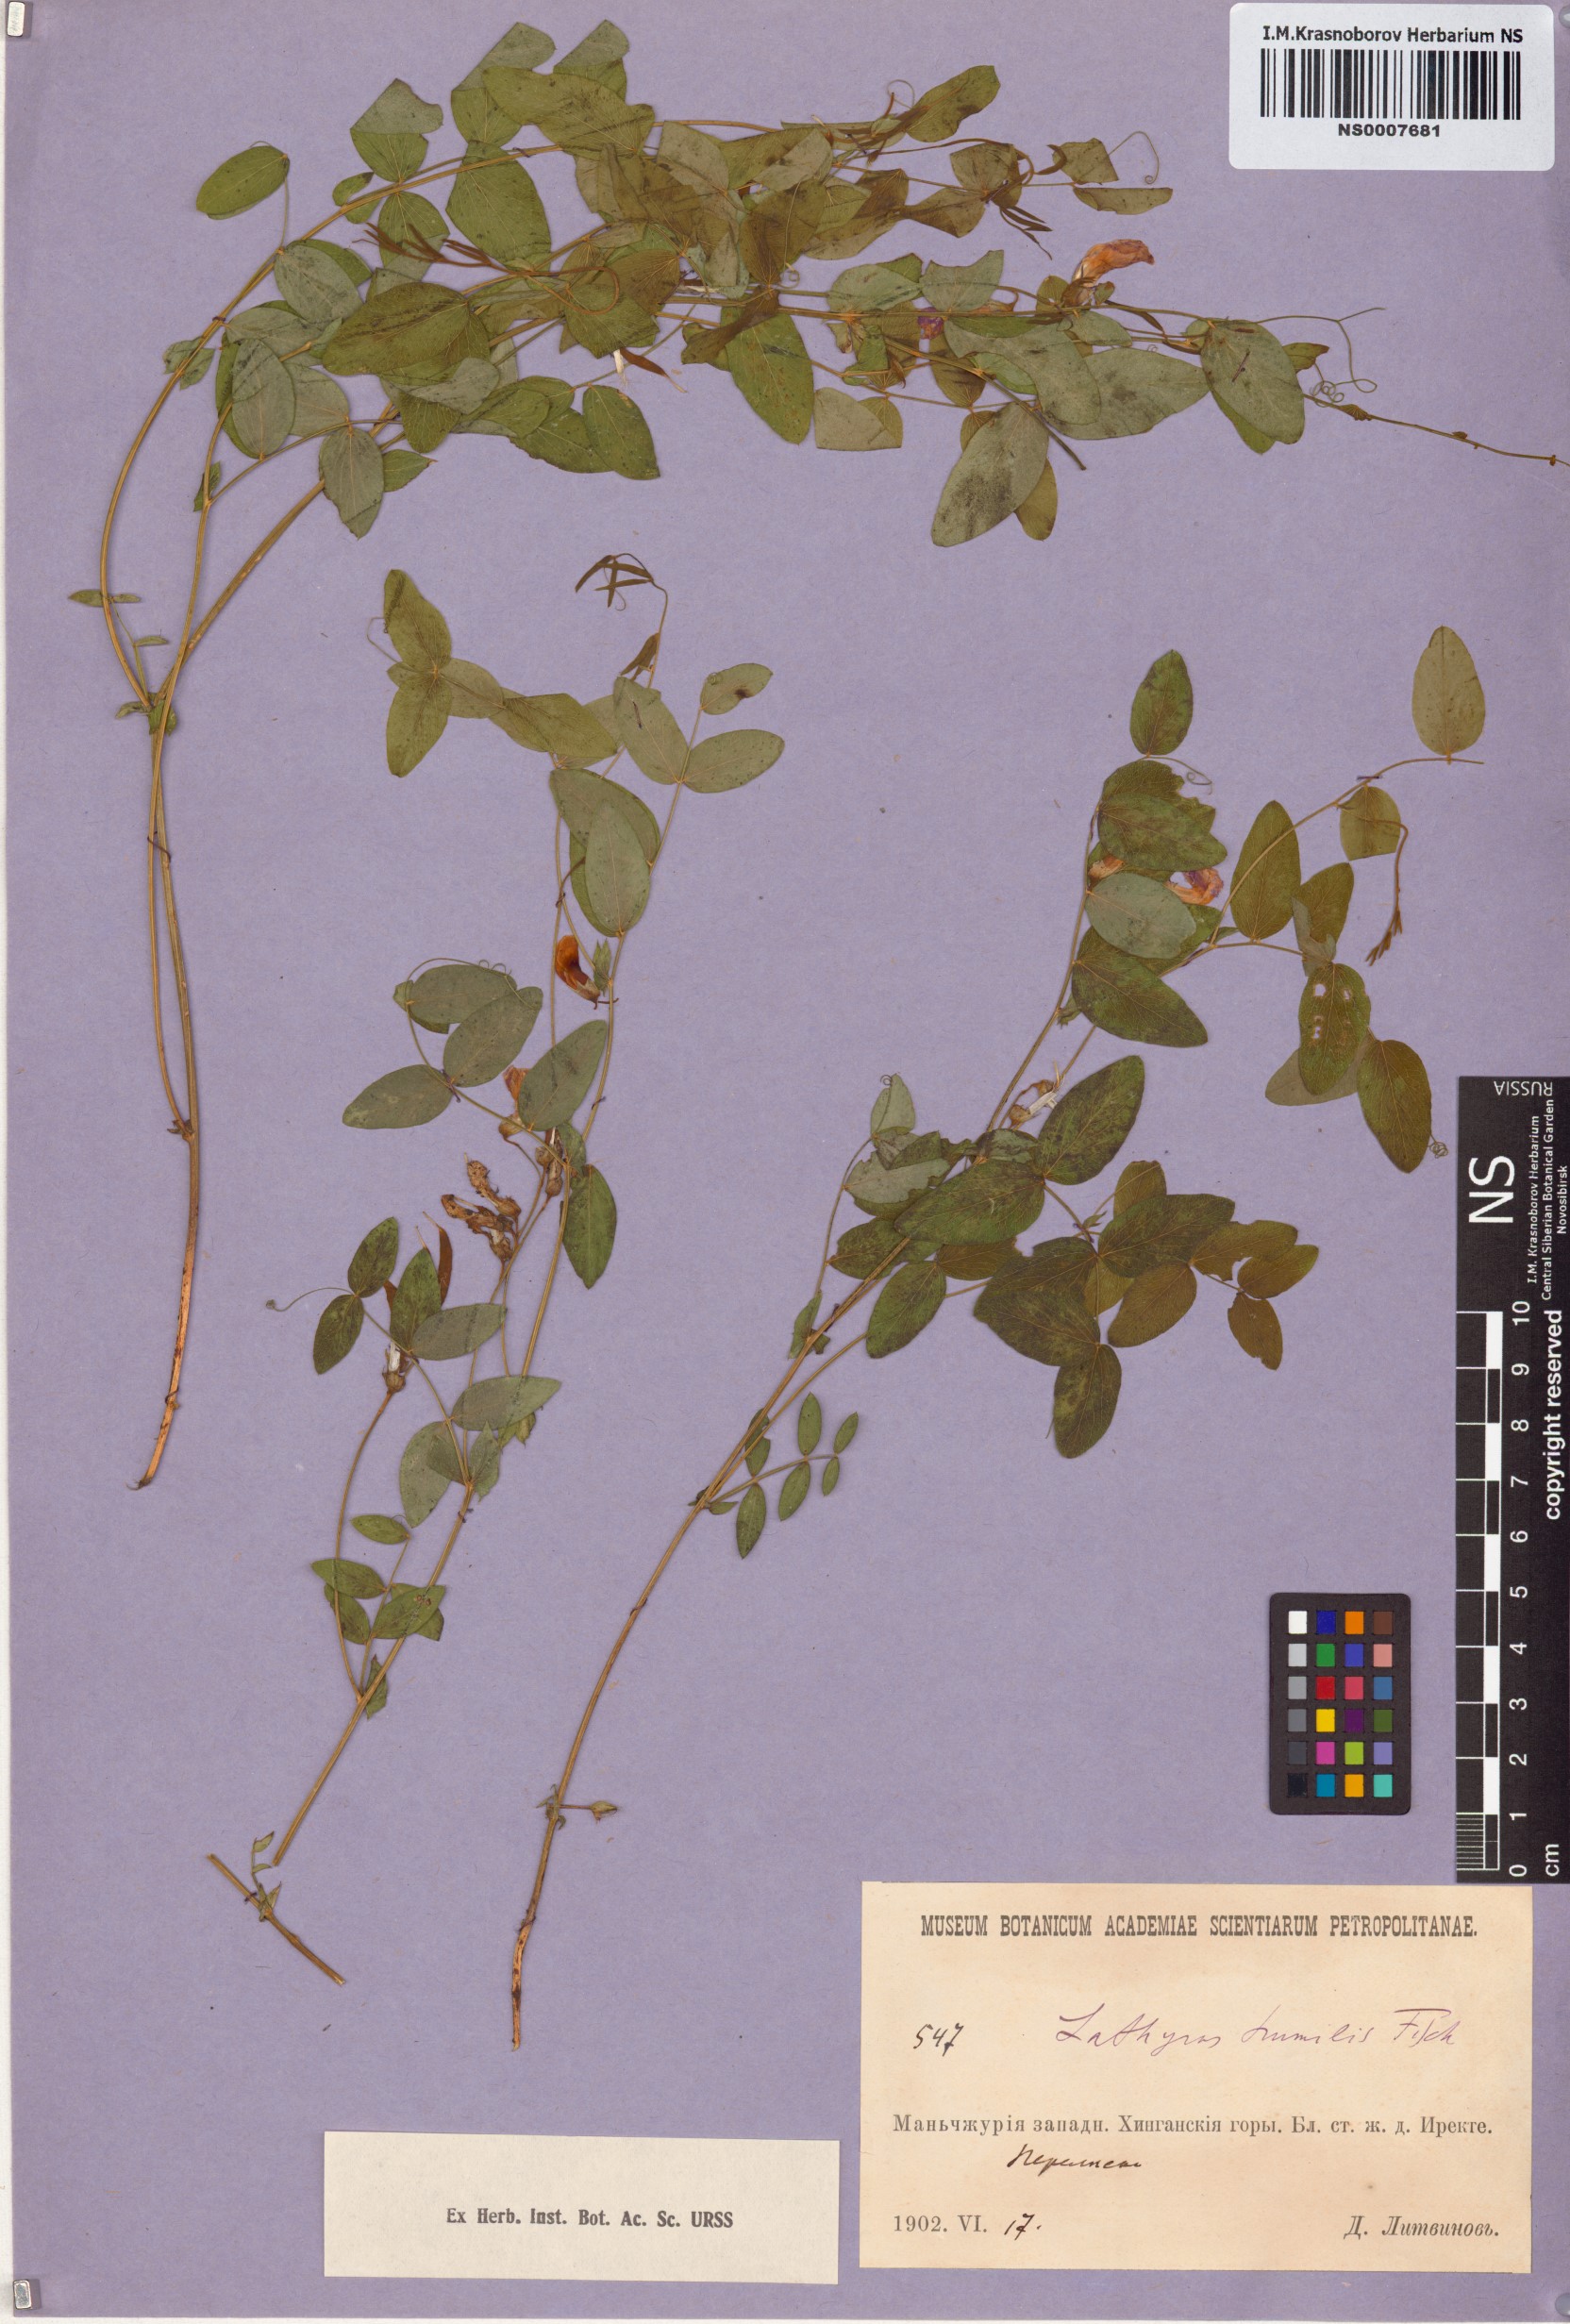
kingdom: Plantae
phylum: Tracheophyta
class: Magnoliopsida
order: Fabales
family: Fabaceae
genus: Lathyrus
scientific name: Lathyrus humilis
